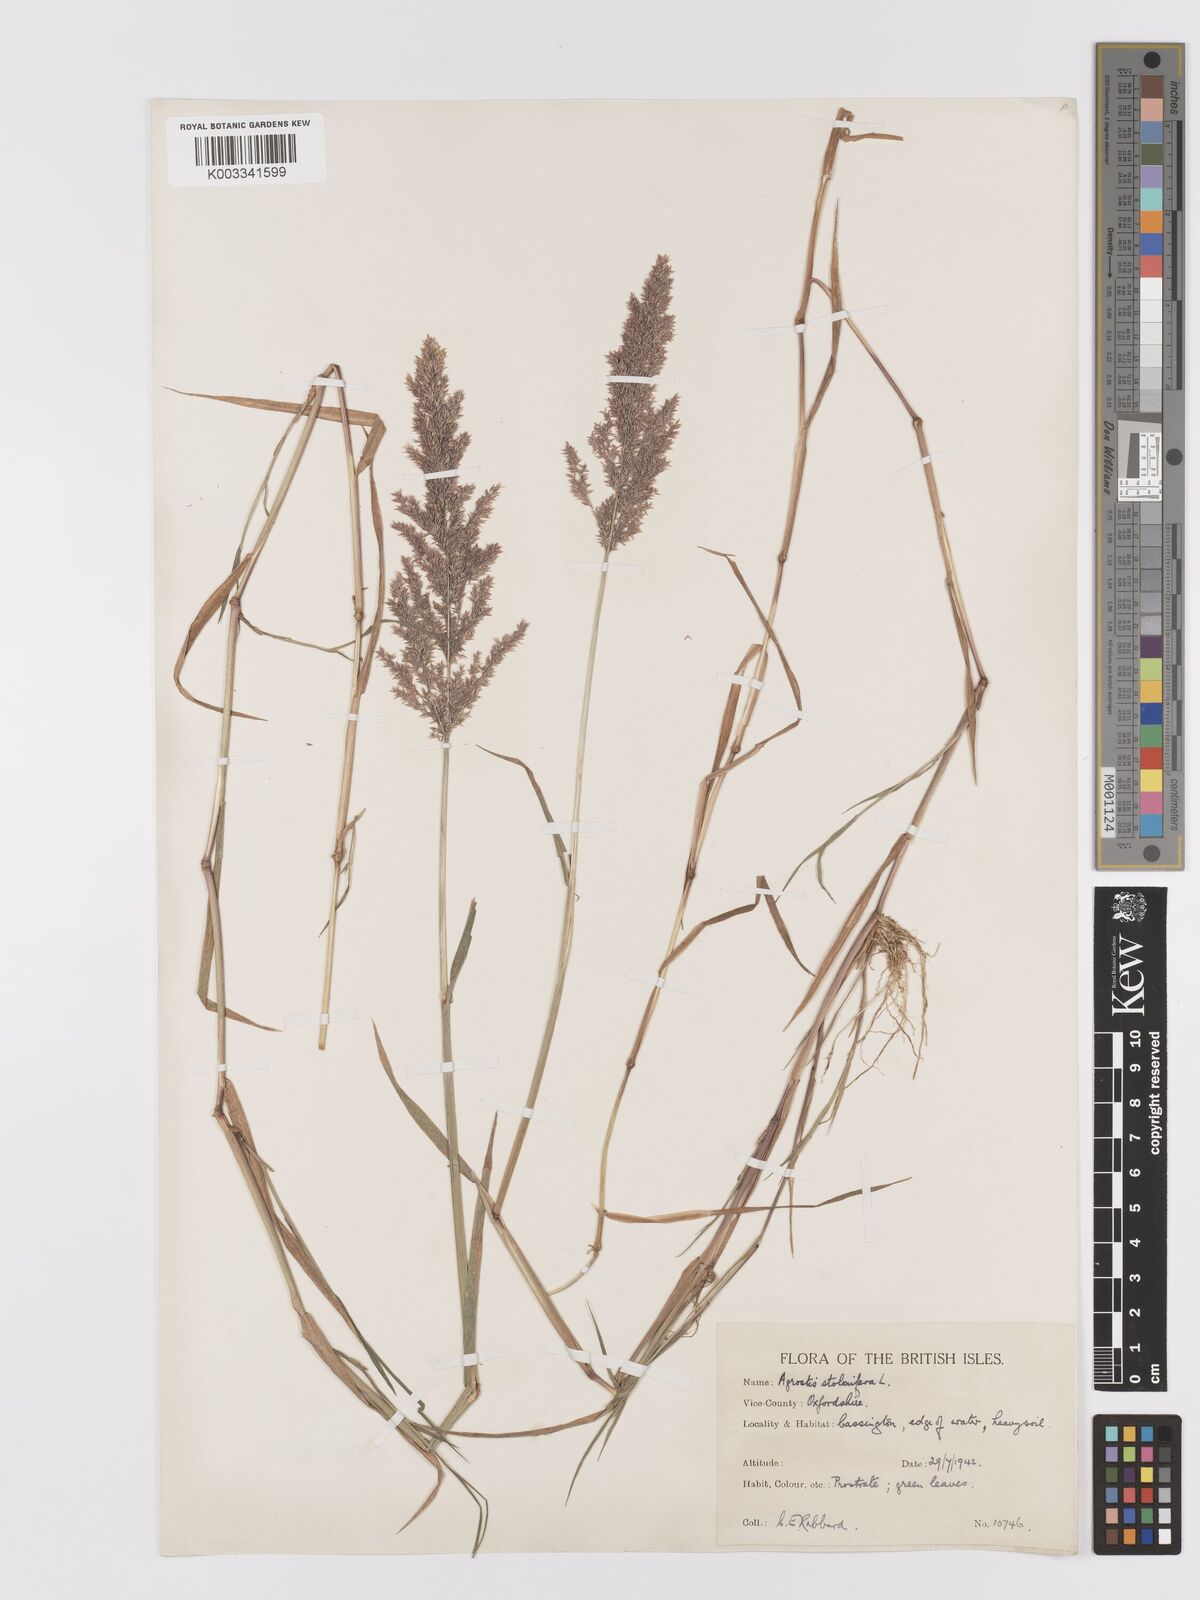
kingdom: Plantae
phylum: Tracheophyta
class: Liliopsida
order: Poales
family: Poaceae
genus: Agrostis
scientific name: Agrostis stolonifera
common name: Creeping bentgrass
